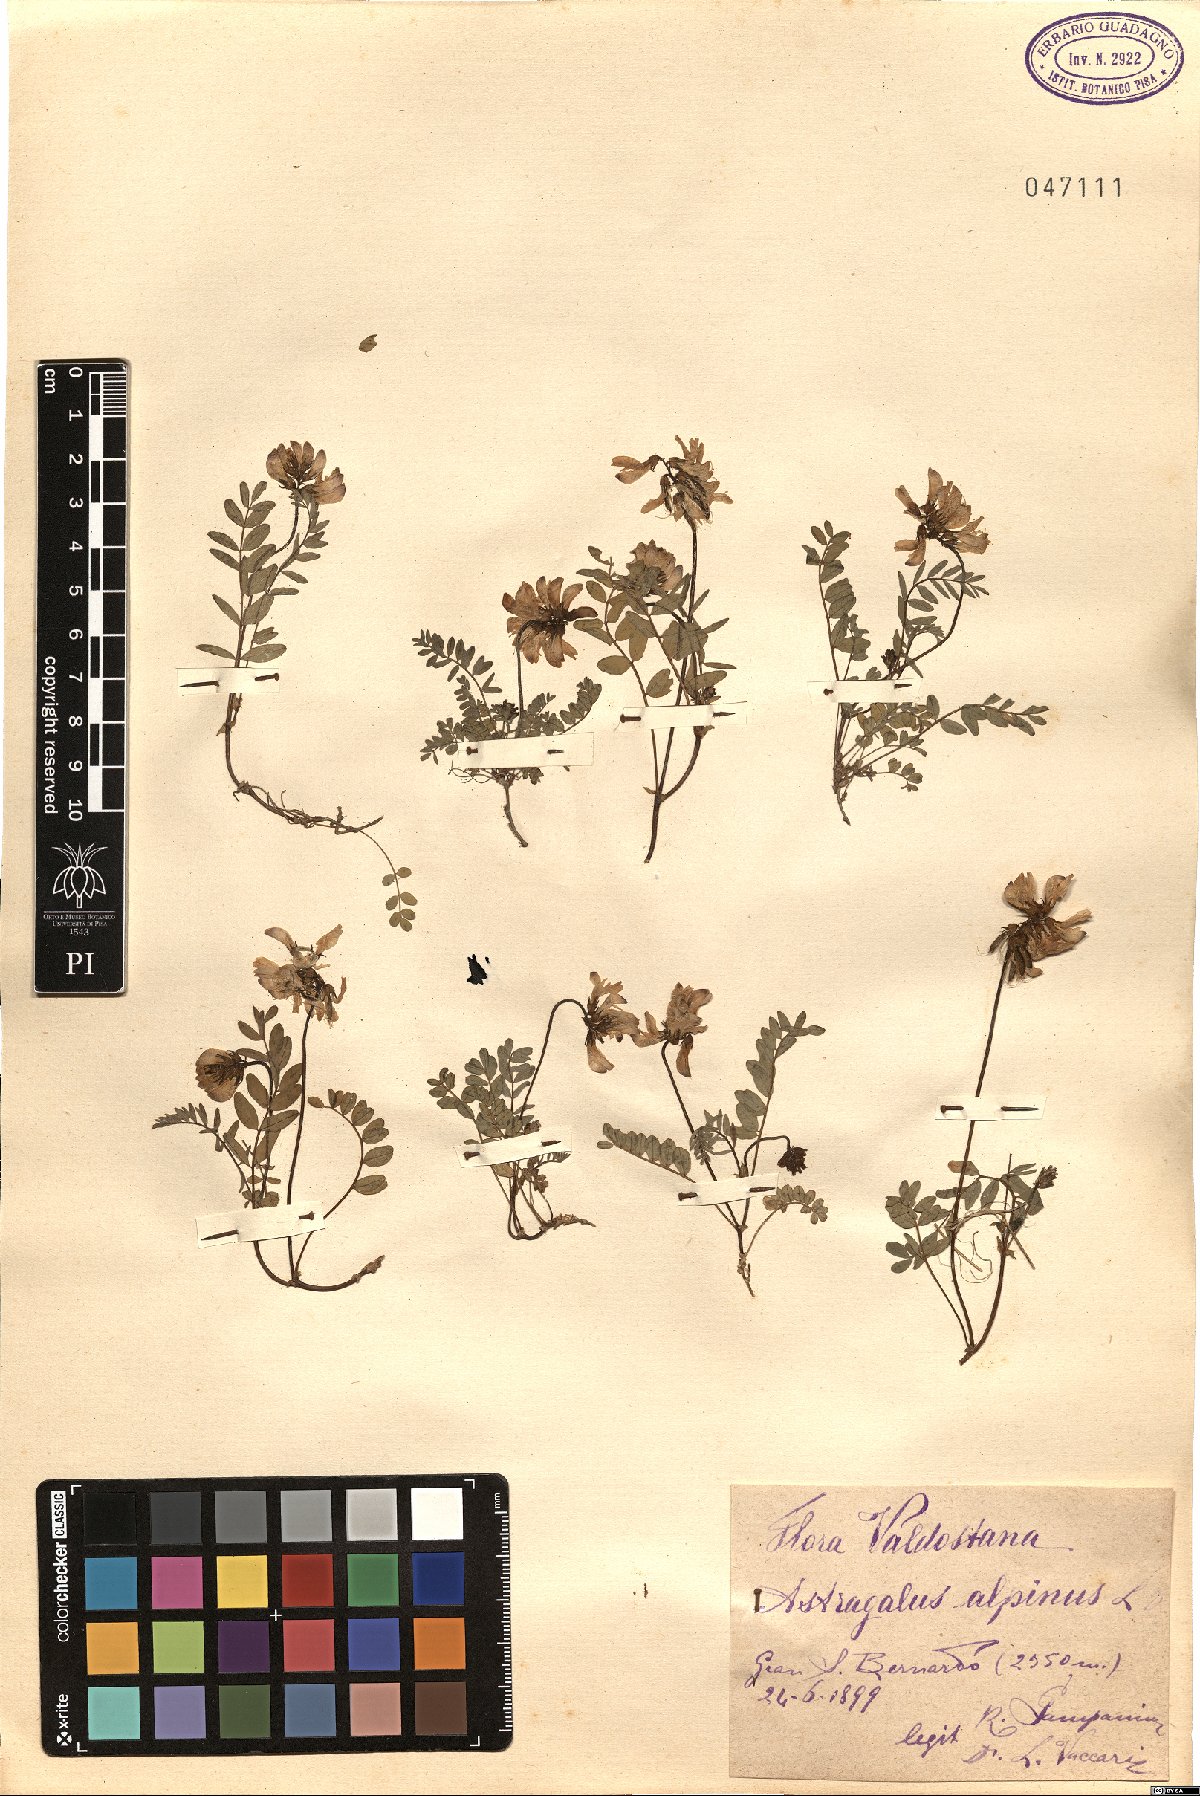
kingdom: Plantae
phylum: Tracheophyta
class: Magnoliopsida
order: Fabales
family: Fabaceae
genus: Astragalus
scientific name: Astragalus alpinus
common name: Alpine milk-vetch
